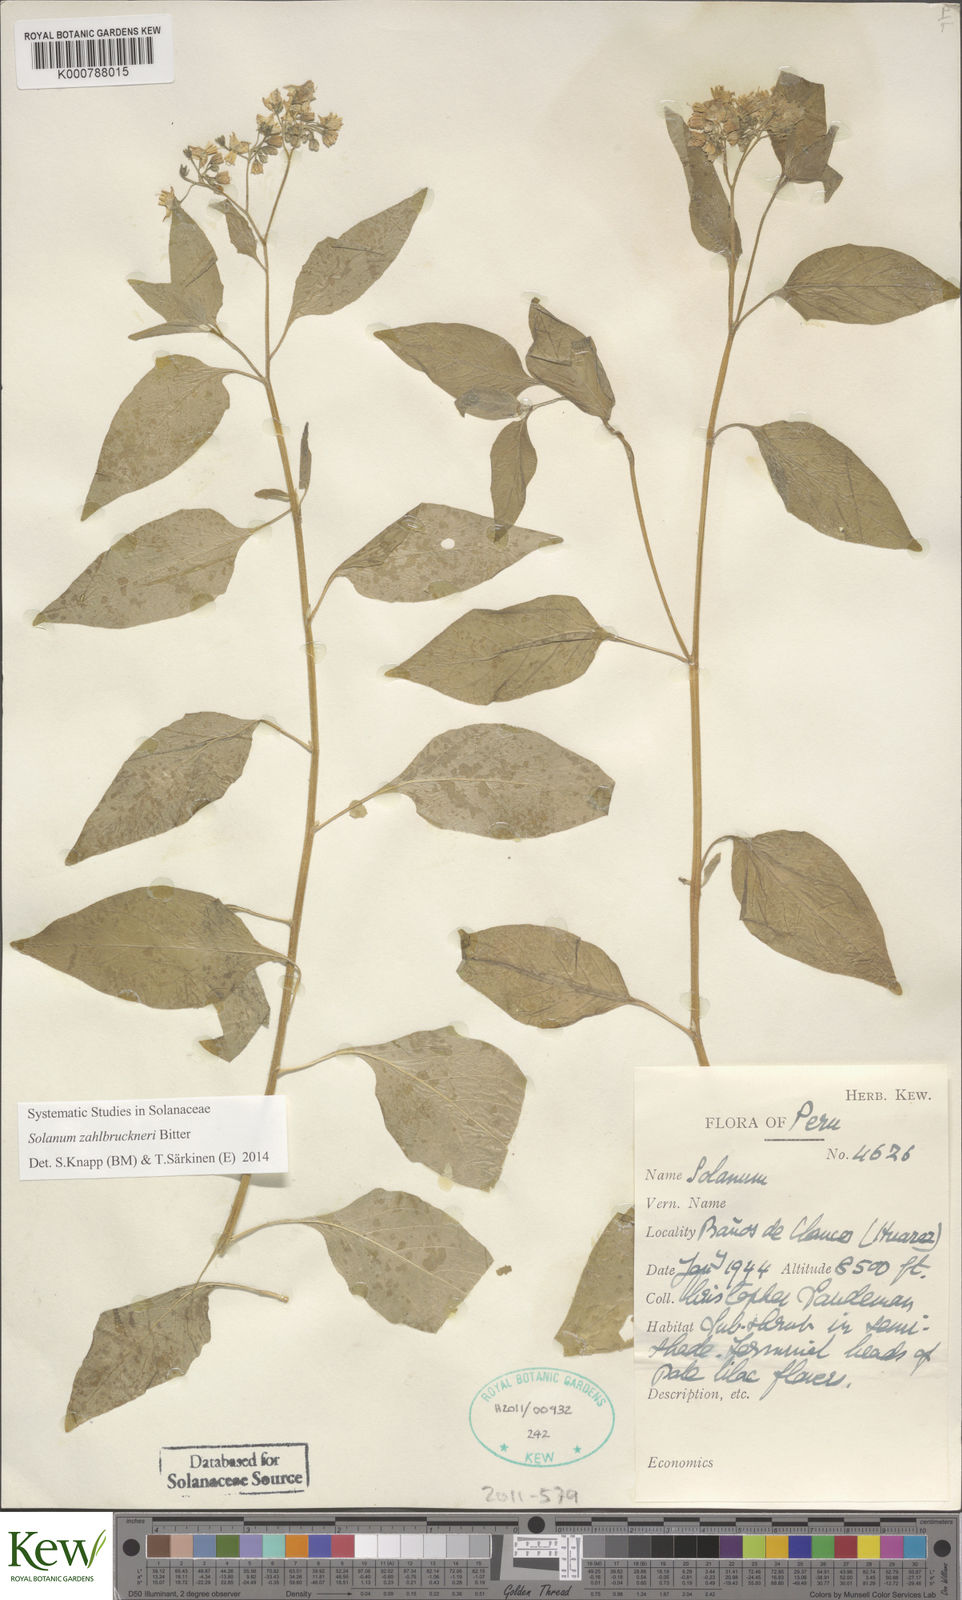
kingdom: Plantae
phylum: Tracheophyta
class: Magnoliopsida
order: Solanales
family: Solanaceae
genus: Solanum
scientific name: Solanum aloysiifolium
